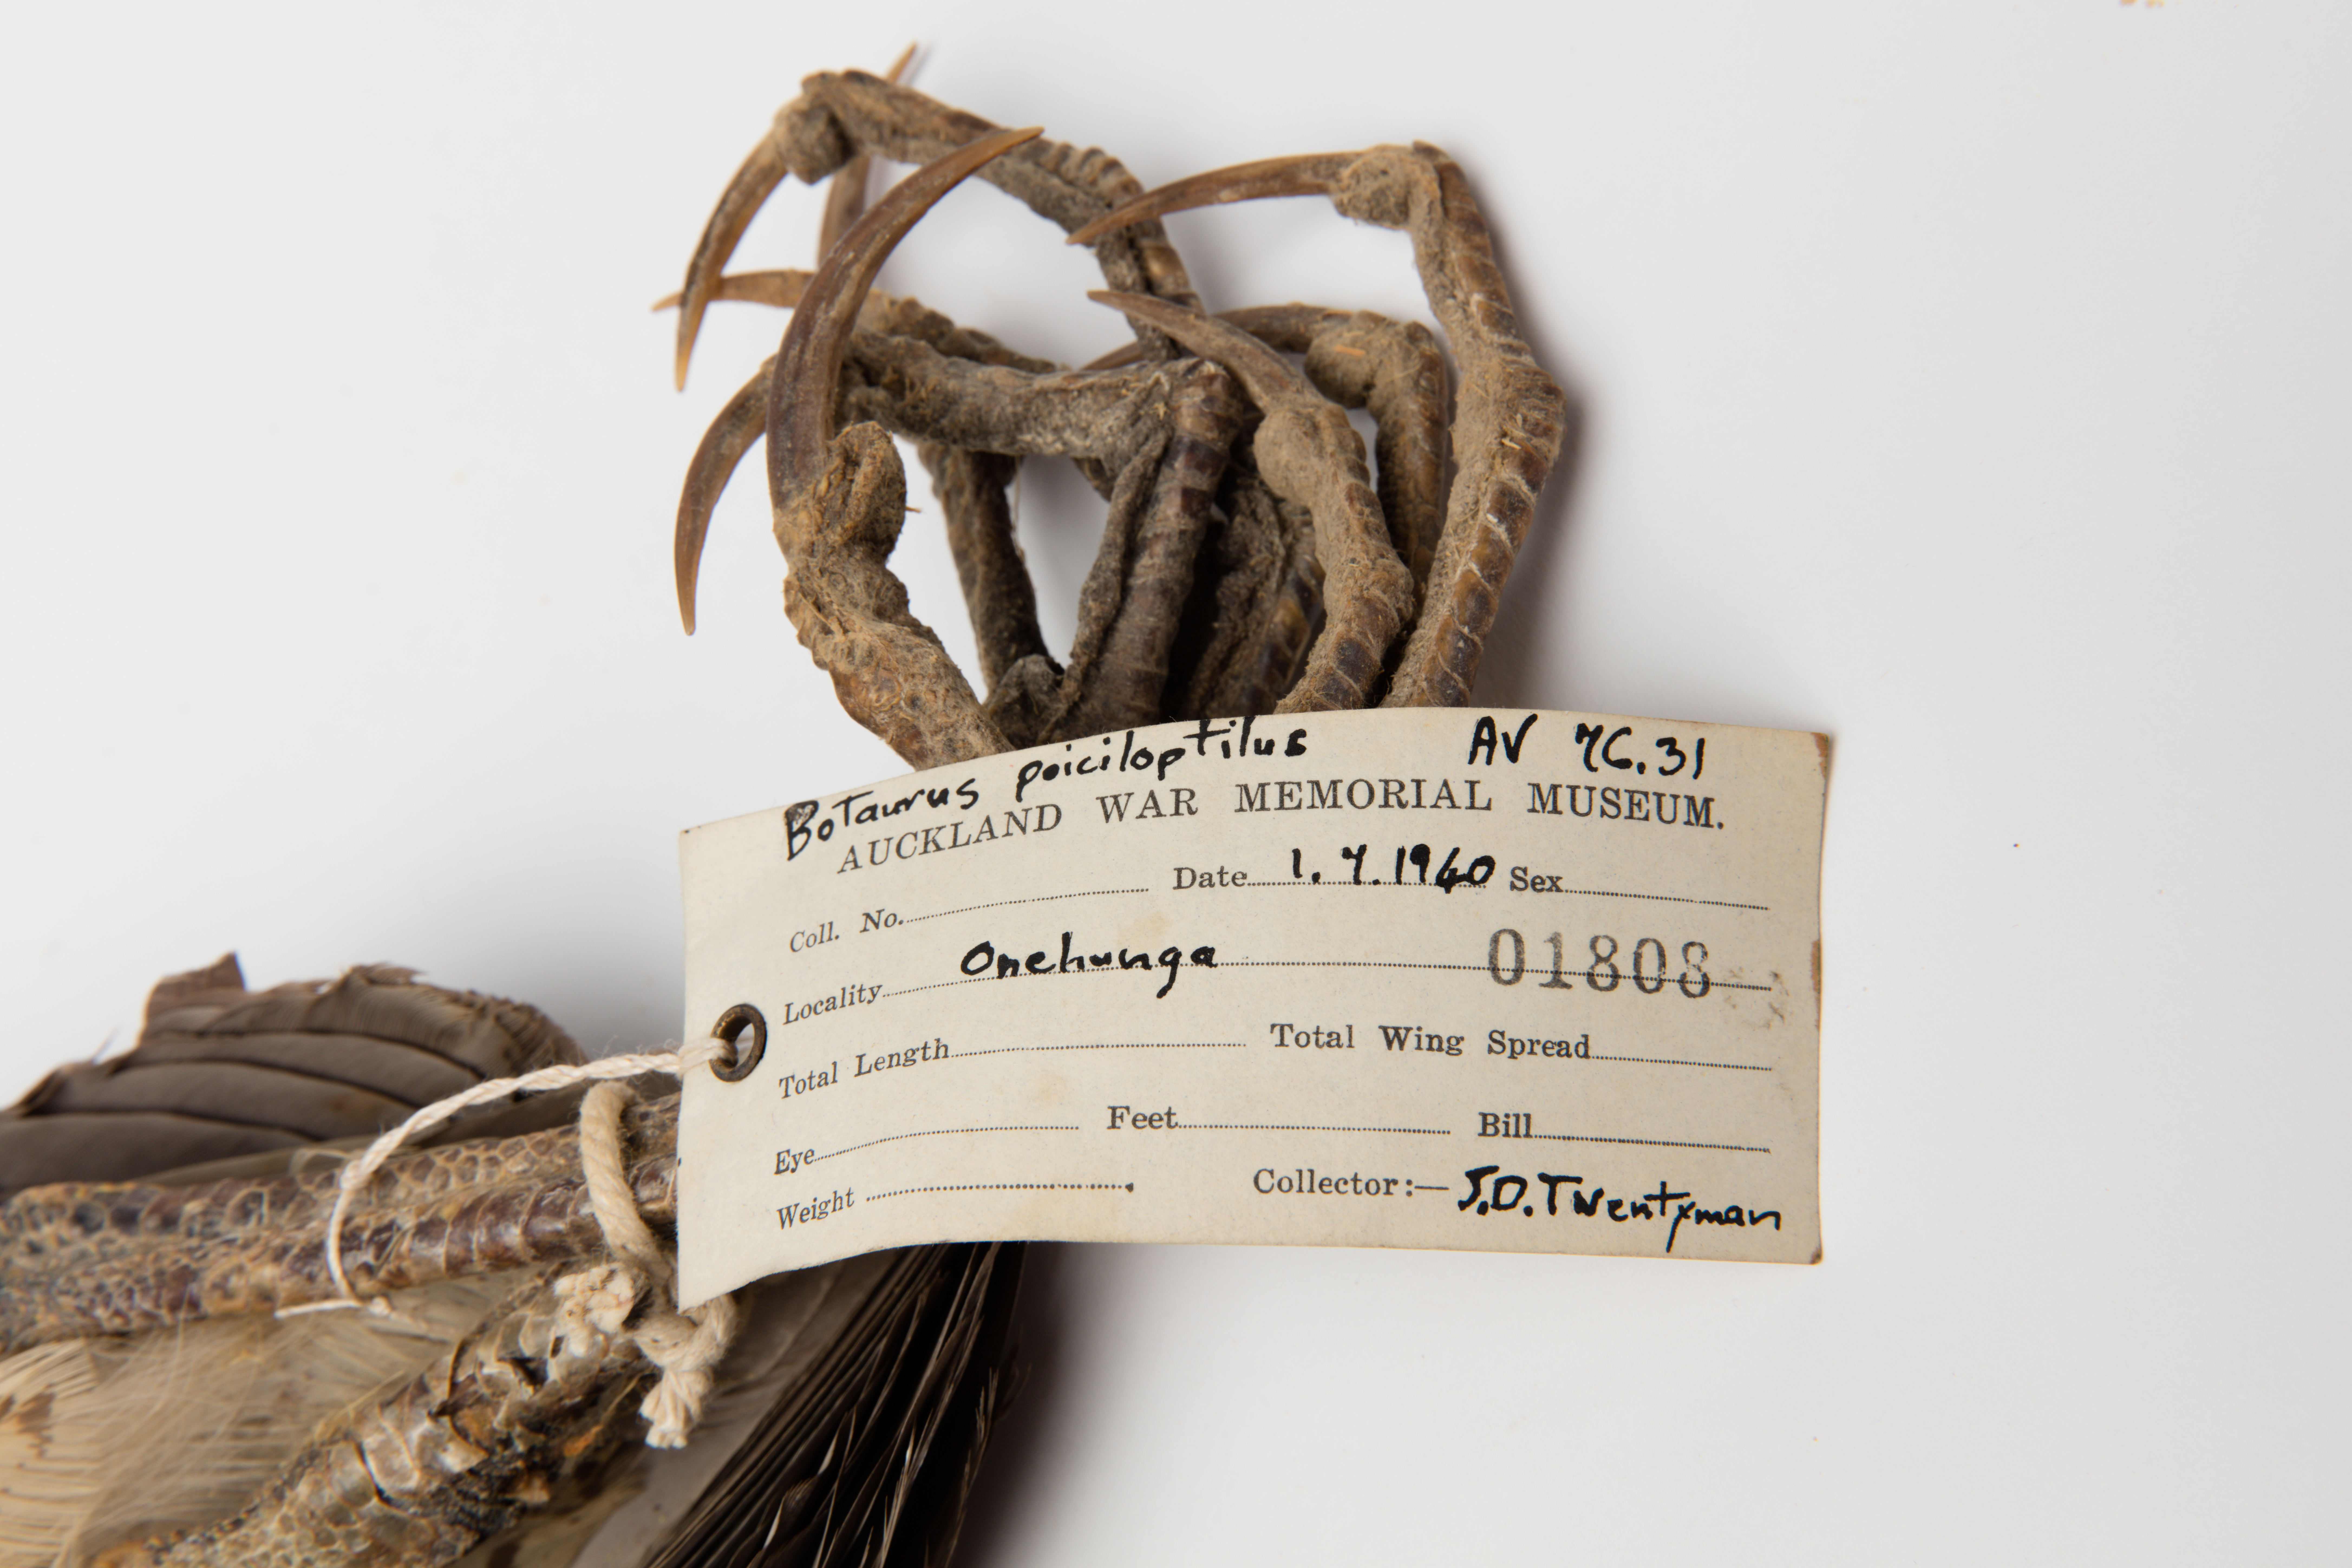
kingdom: Animalia
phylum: Chordata
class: Aves
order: Pelecaniformes
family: Ardeidae
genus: Botaurus
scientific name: Botaurus poiciloptilus
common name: Australasian bittern
